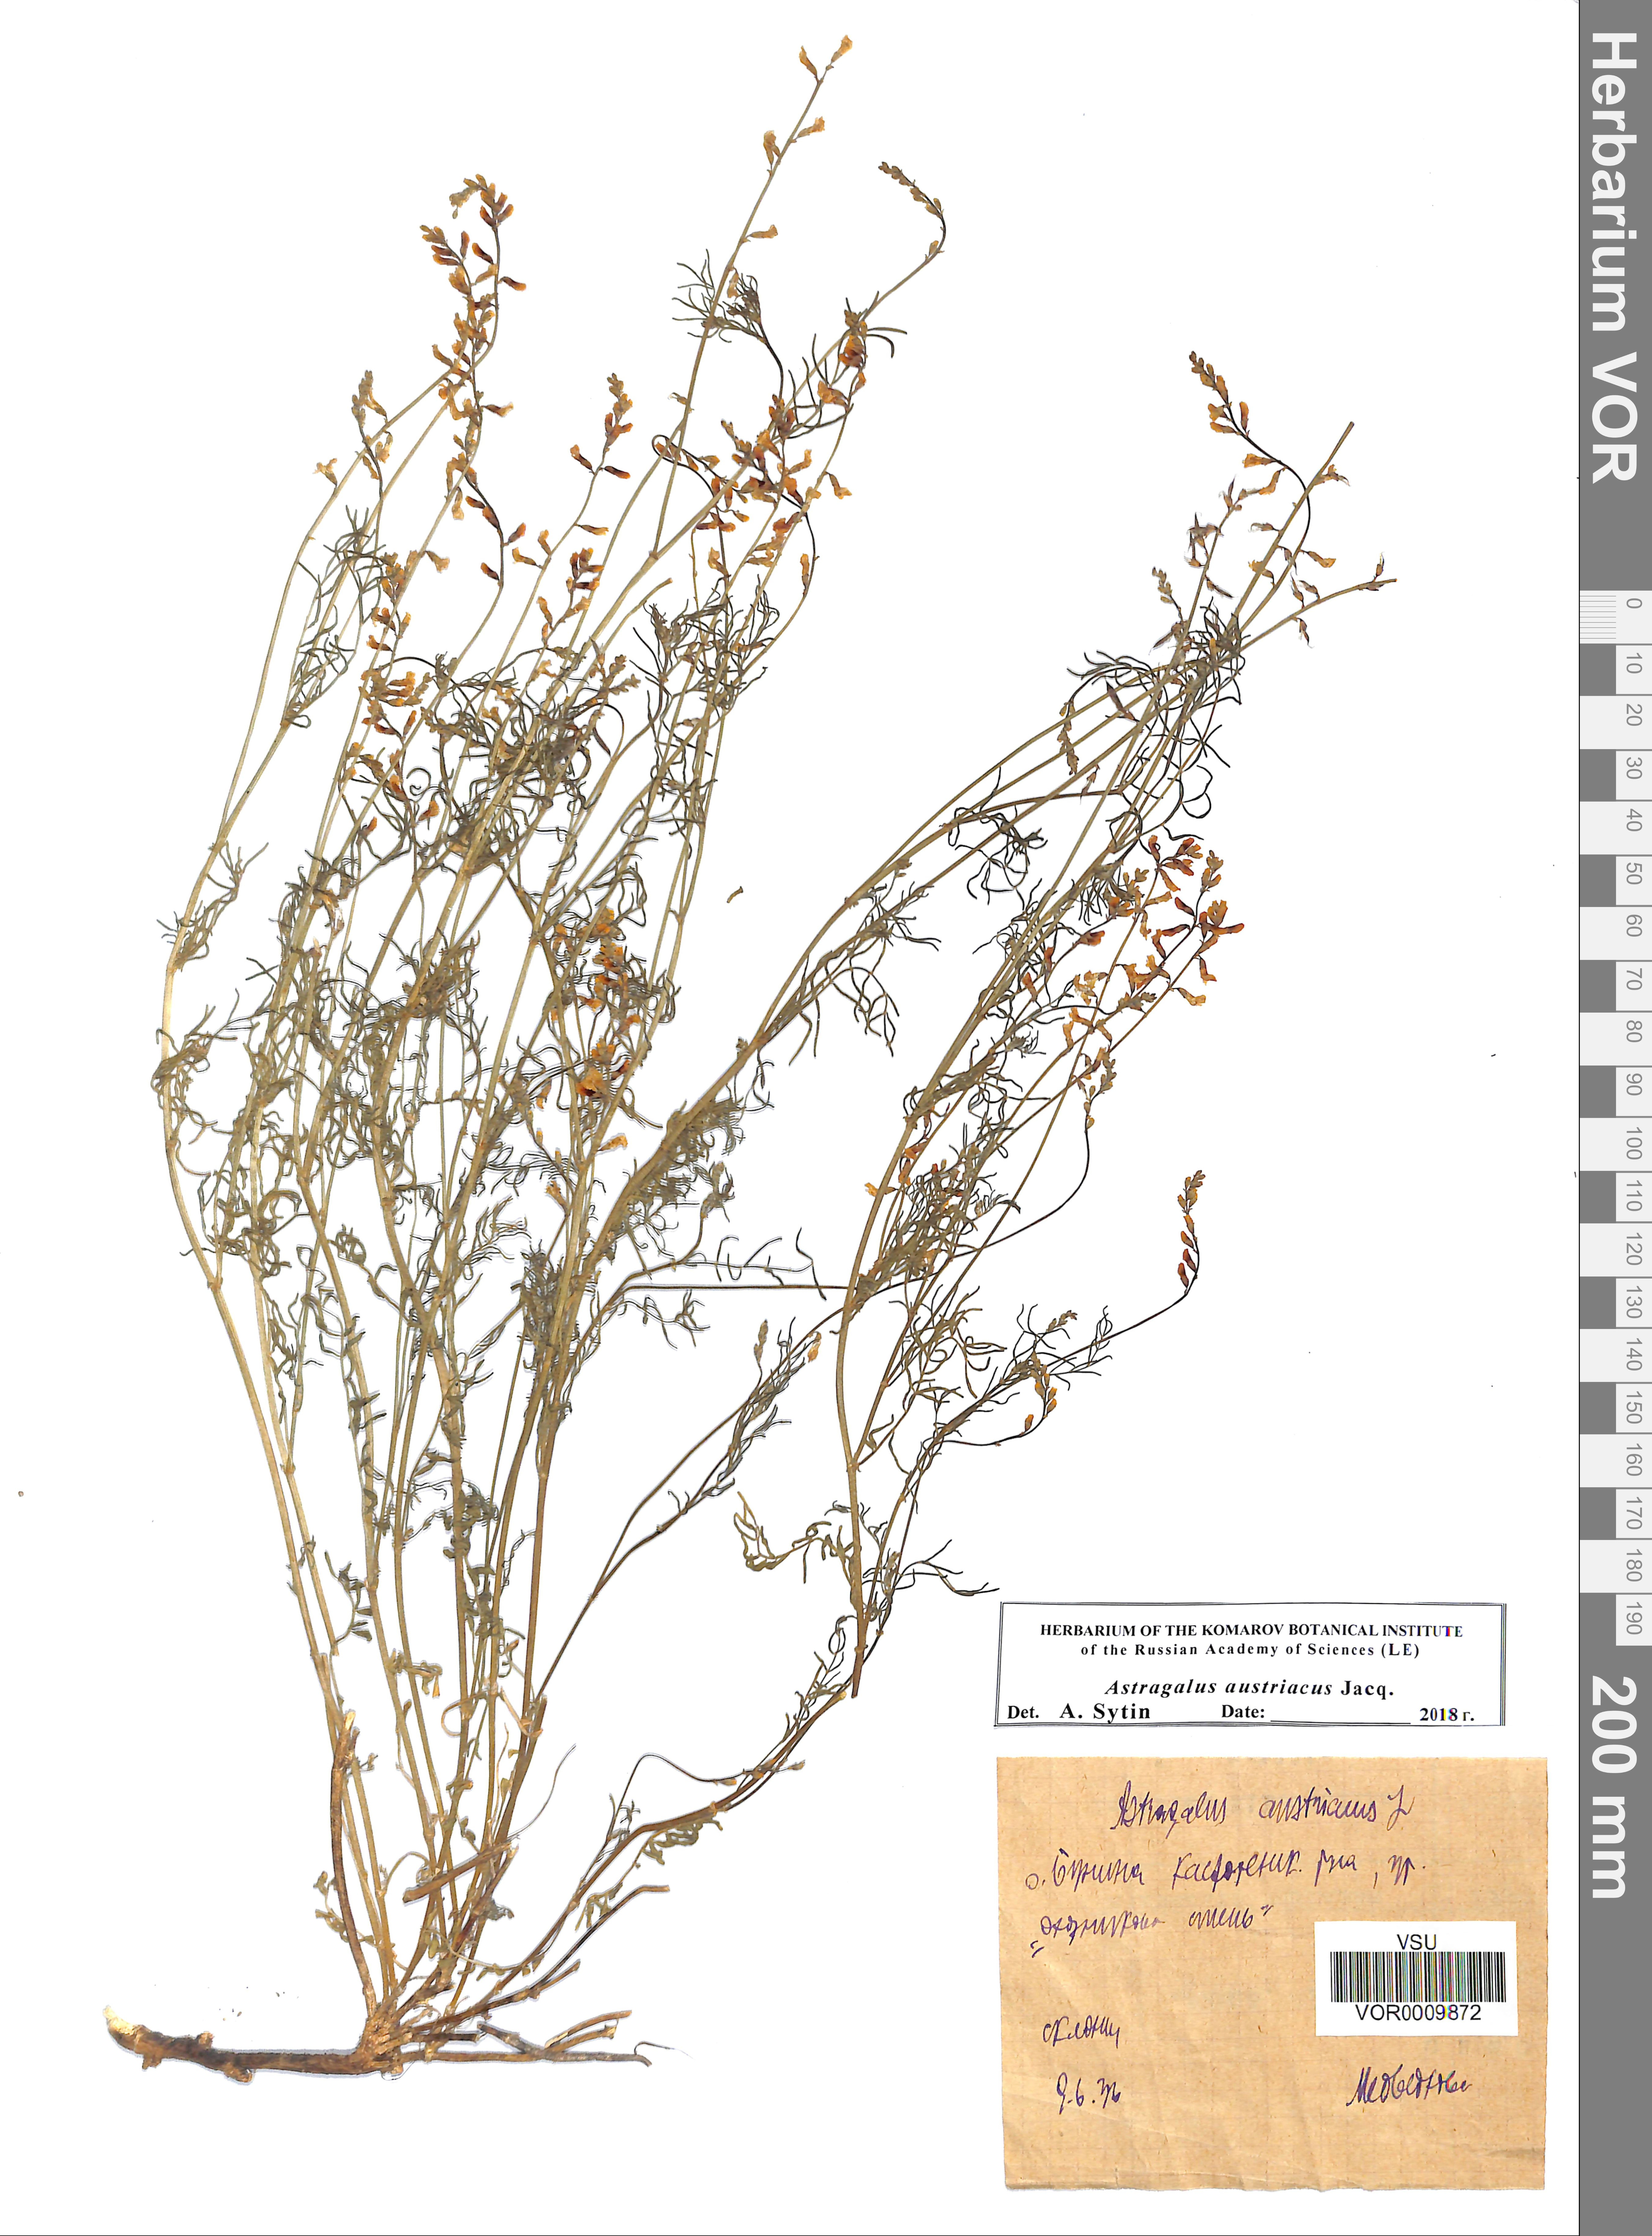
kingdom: Plantae
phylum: Tracheophyta
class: Magnoliopsida
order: Fabales
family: Fabaceae
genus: Astragalus
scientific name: Astragalus austriacus
